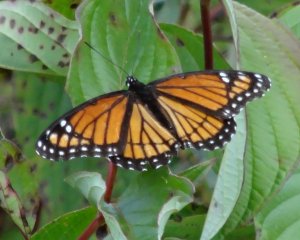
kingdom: Animalia
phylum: Arthropoda
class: Insecta
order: Lepidoptera
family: Nymphalidae
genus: Limenitis
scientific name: Limenitis archippus
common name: Viceroy
